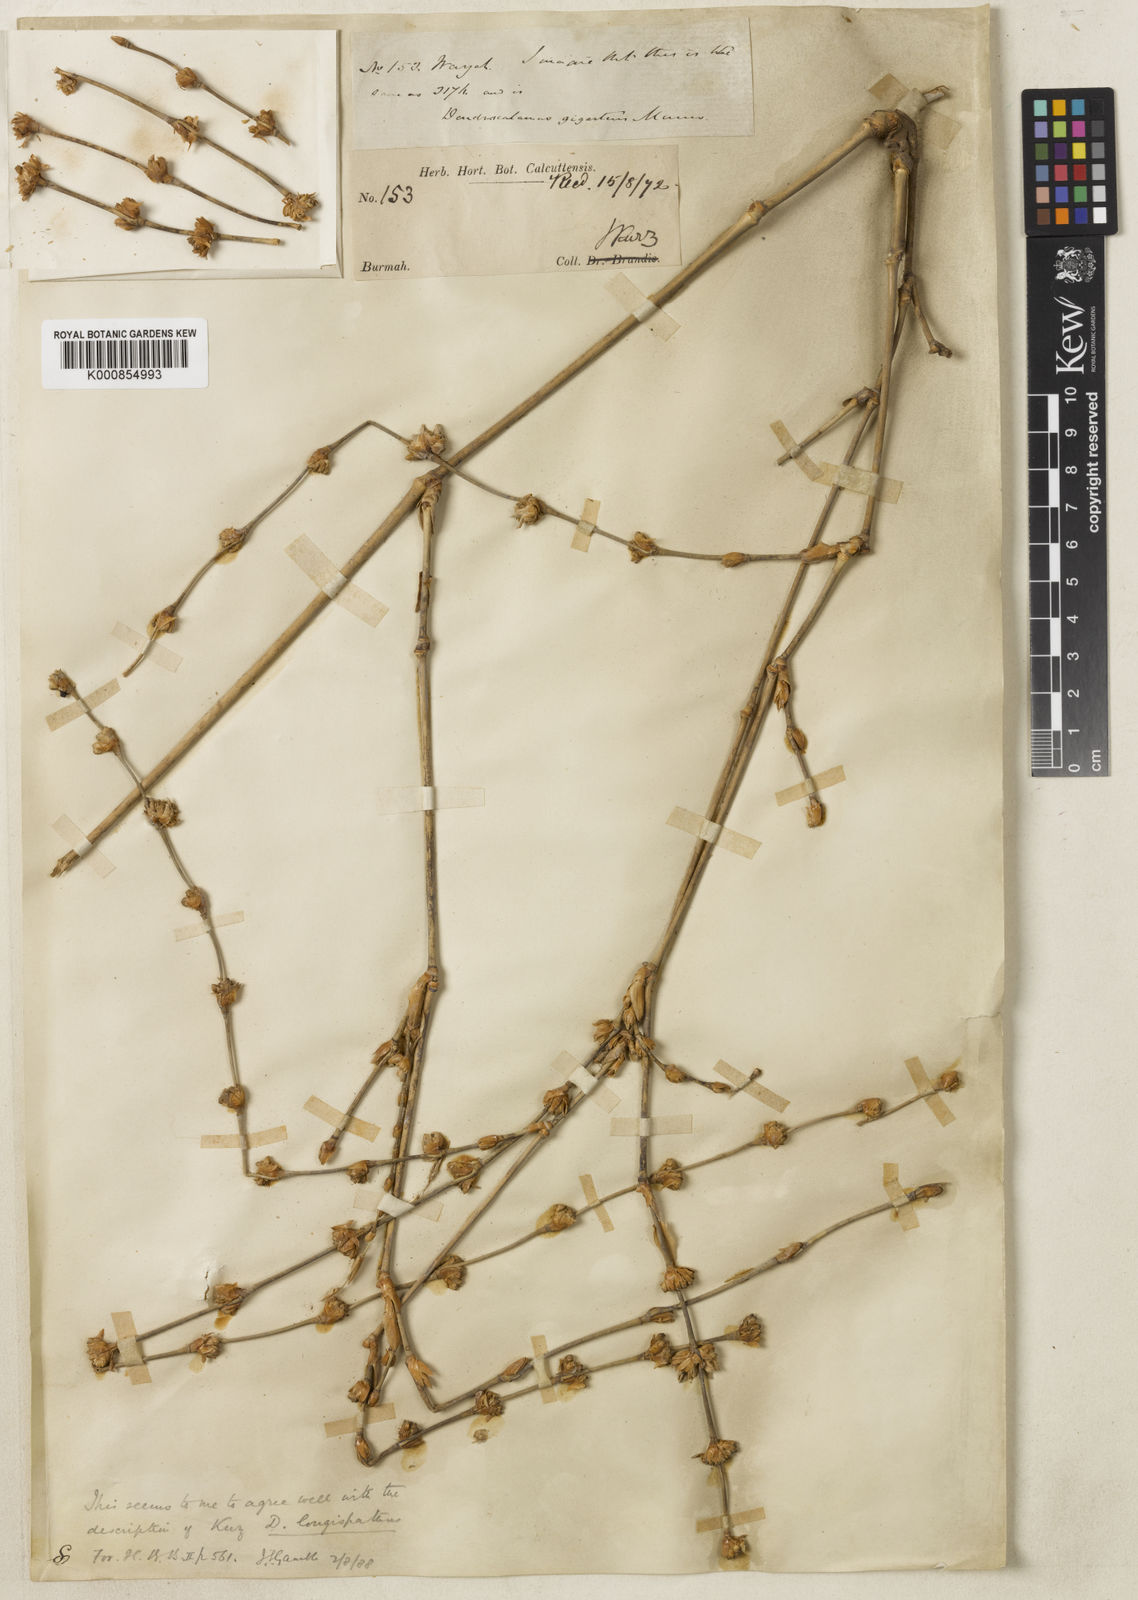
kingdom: Plantae
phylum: Tracheophyta
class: Liliopsida
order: Poales
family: Poaceae
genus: Dendrocalamus
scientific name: Dendrocalamus longispathus
